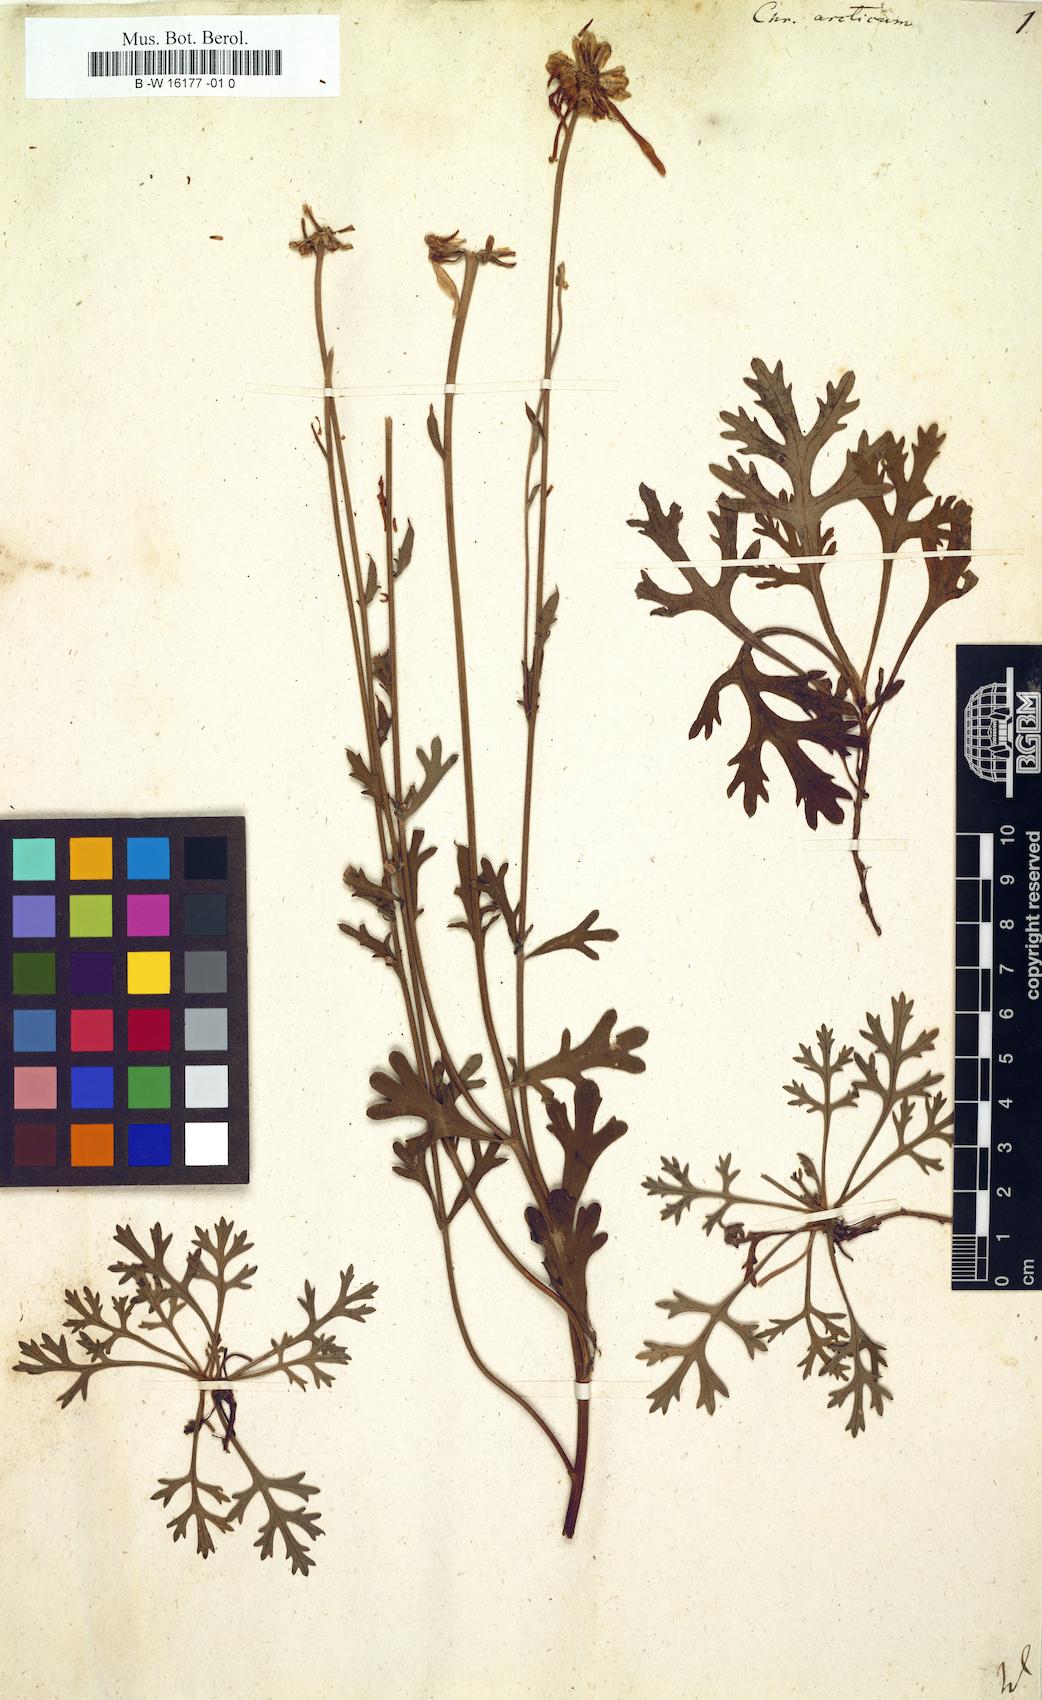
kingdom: Plantae
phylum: Tracheophyta
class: Magnoliopsida
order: Asterales
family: Asteraceae
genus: Arctanthemum
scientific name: Arctanthemum arcticum
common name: Arctic daisy
